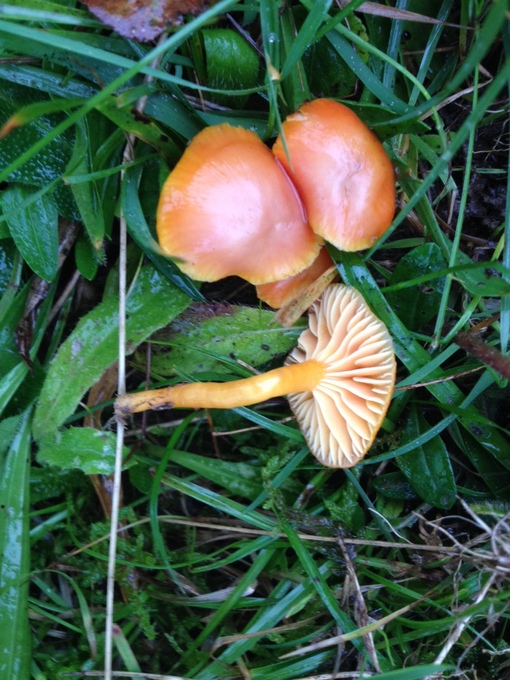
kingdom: Fungi
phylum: Basidiomycota
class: Agaricomycetes
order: Agaricales
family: Hygrophoraceae
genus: Hygrocybe
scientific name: Hygrocybe reidii
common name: honning-vokshat
